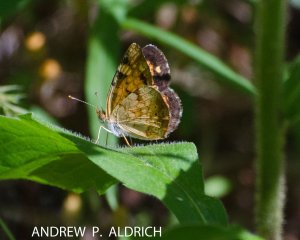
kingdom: Animalia
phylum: Arthropoda
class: Insecta
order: Lepidoptera
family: Nymphalidae
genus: Phyciodes
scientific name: Phyciodes tharos
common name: Northern Crescent
